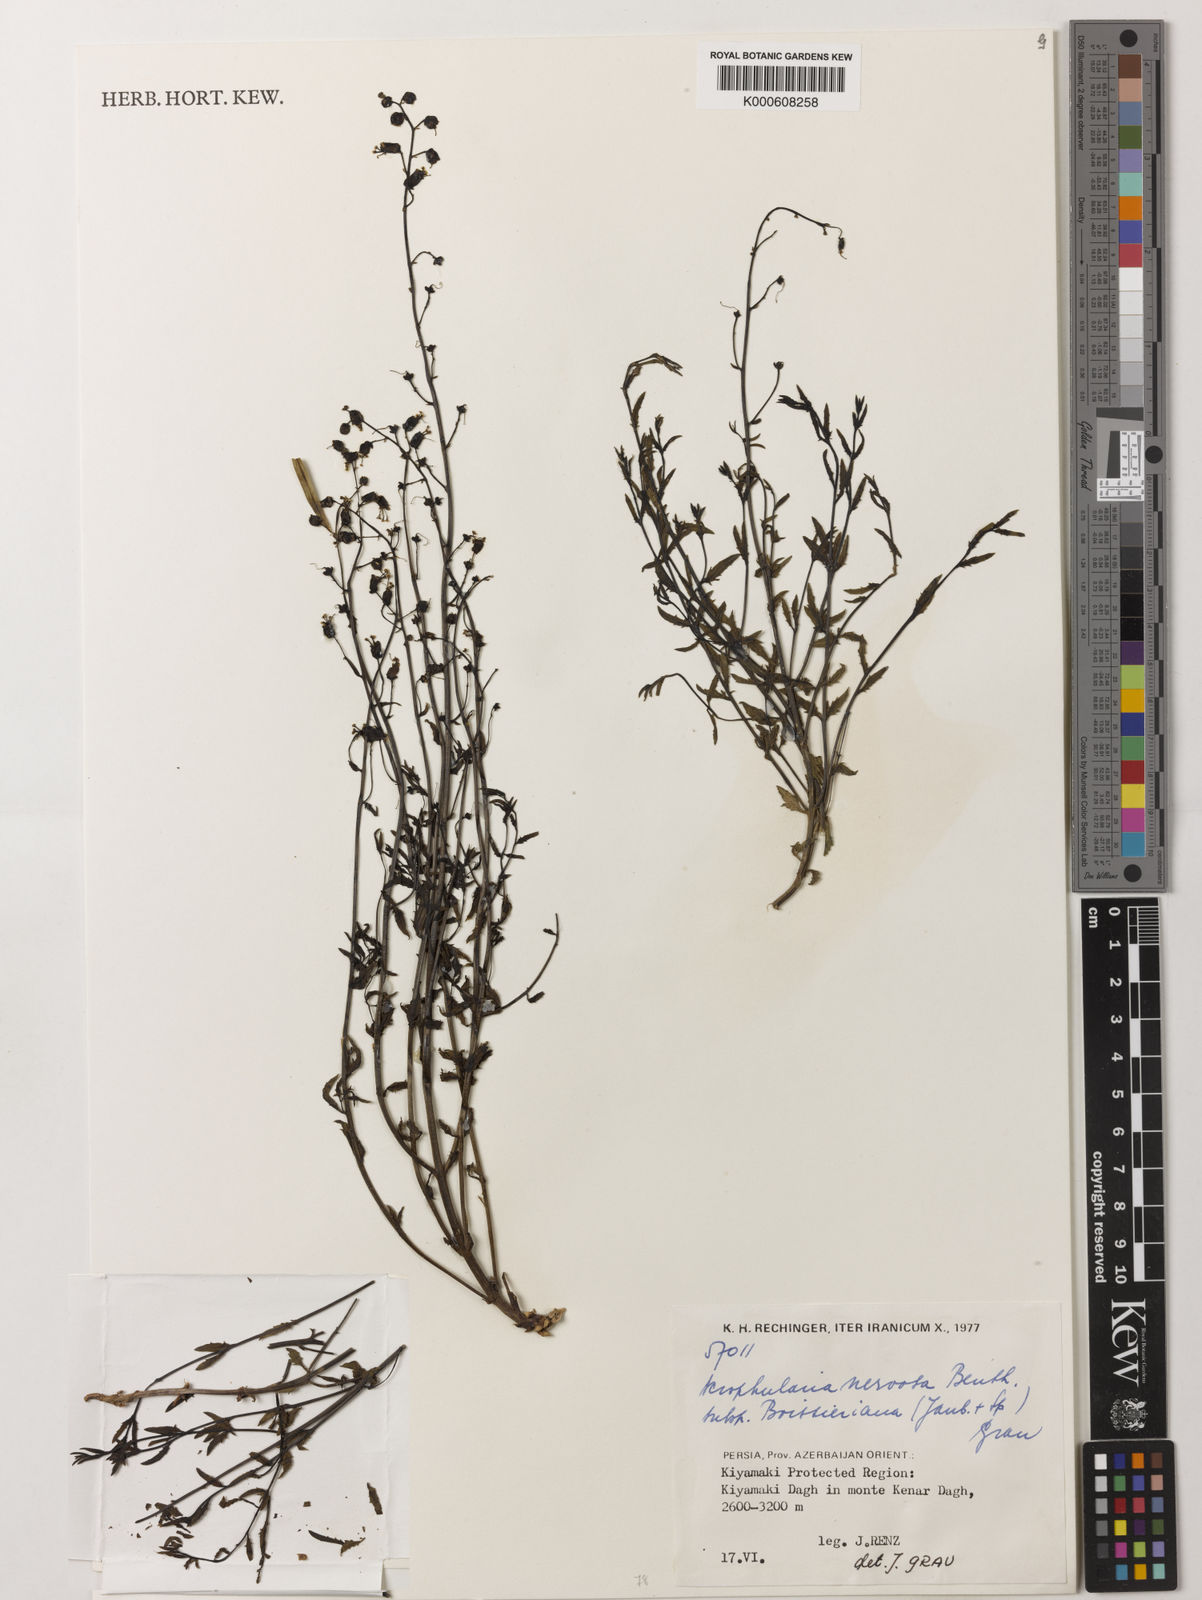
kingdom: Plantae
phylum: Tracheophyta
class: Magnoliopsida
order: Lamiales
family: Scrophulariaceae
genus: Scrophularia
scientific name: Scrophularia nervosa
